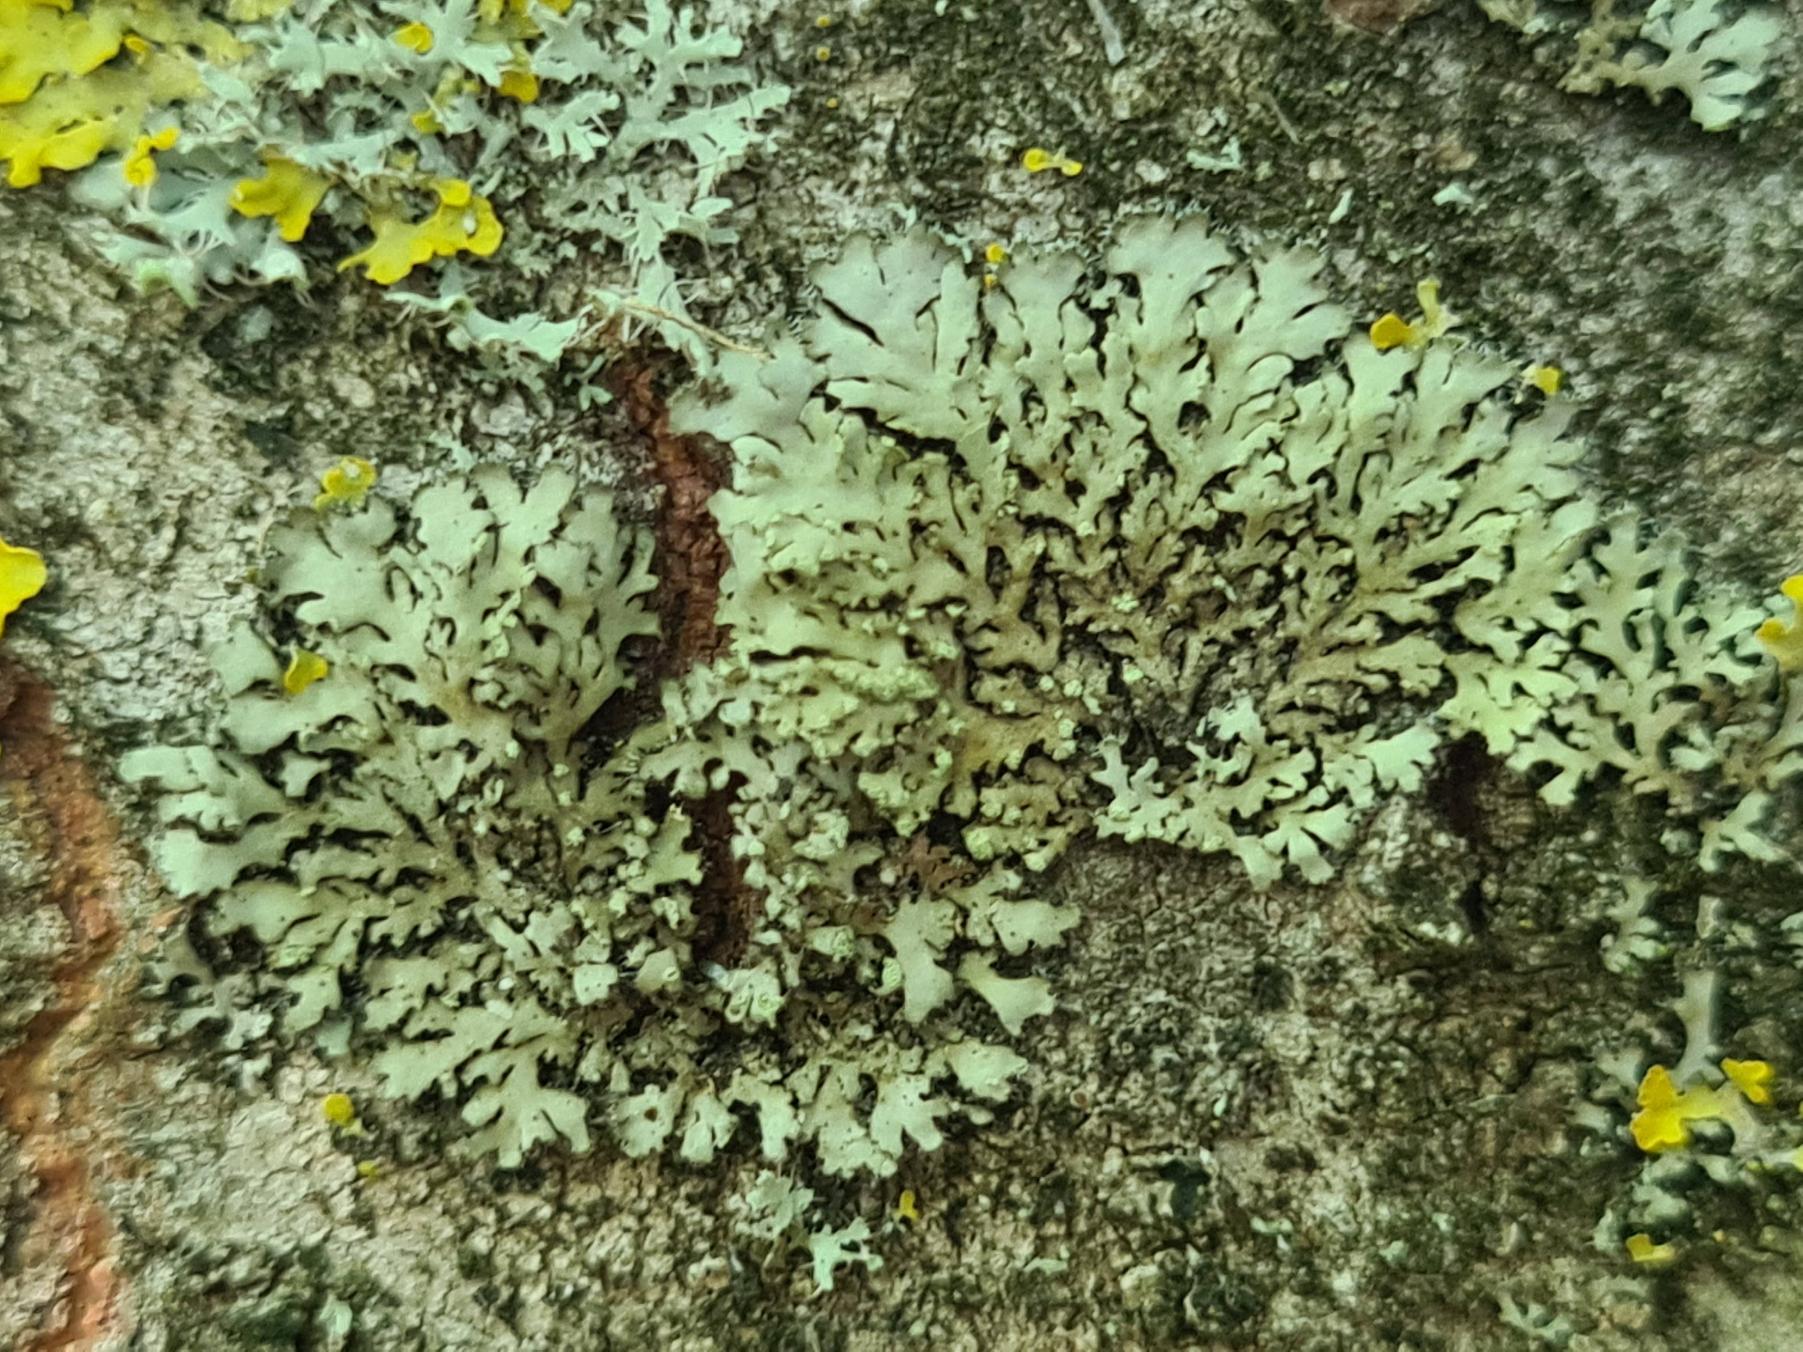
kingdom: Fungi
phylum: Ascomycota
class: Lecanoromycetes
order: Caliciales
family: Physciaceae
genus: Phaeophyscia
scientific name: Phaeophyscia orbicularis
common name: Grågrøn rosetlav
